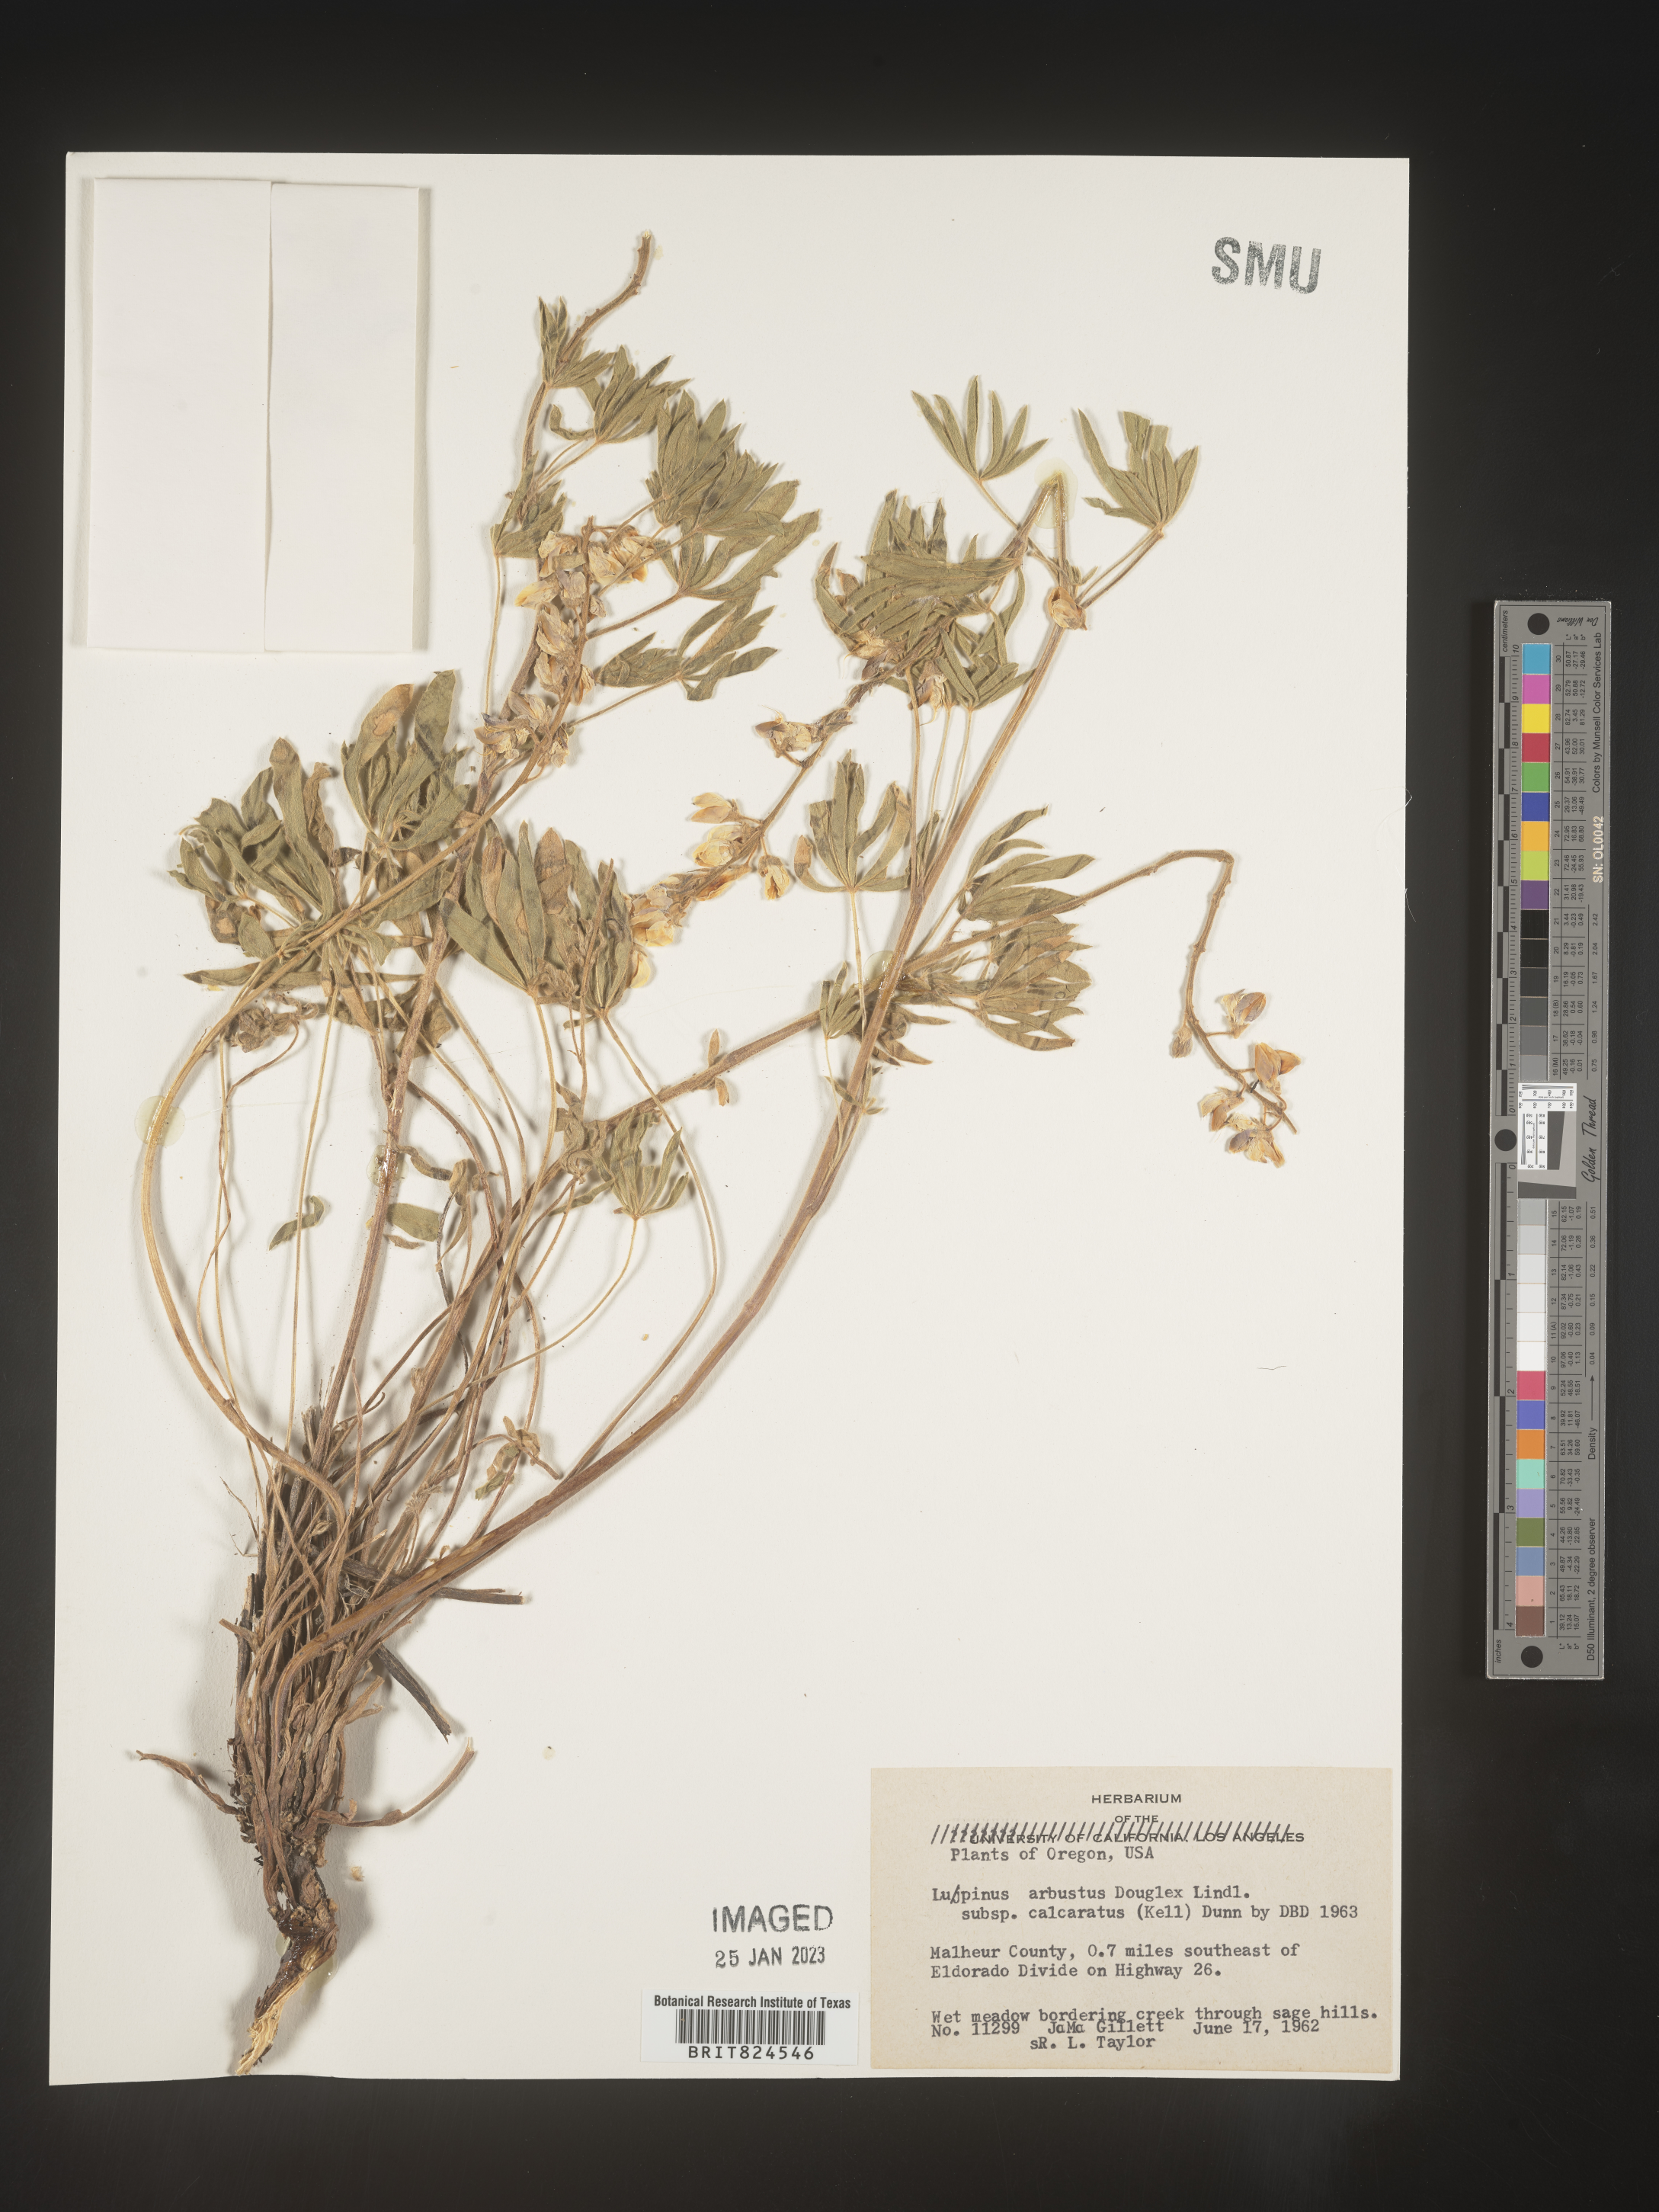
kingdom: Plantae
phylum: Tracheophyta
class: Magnoliopsida
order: Fabales
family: Fabaceae
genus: Lupinus
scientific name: Lupinus arbustus
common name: Montana lupine
